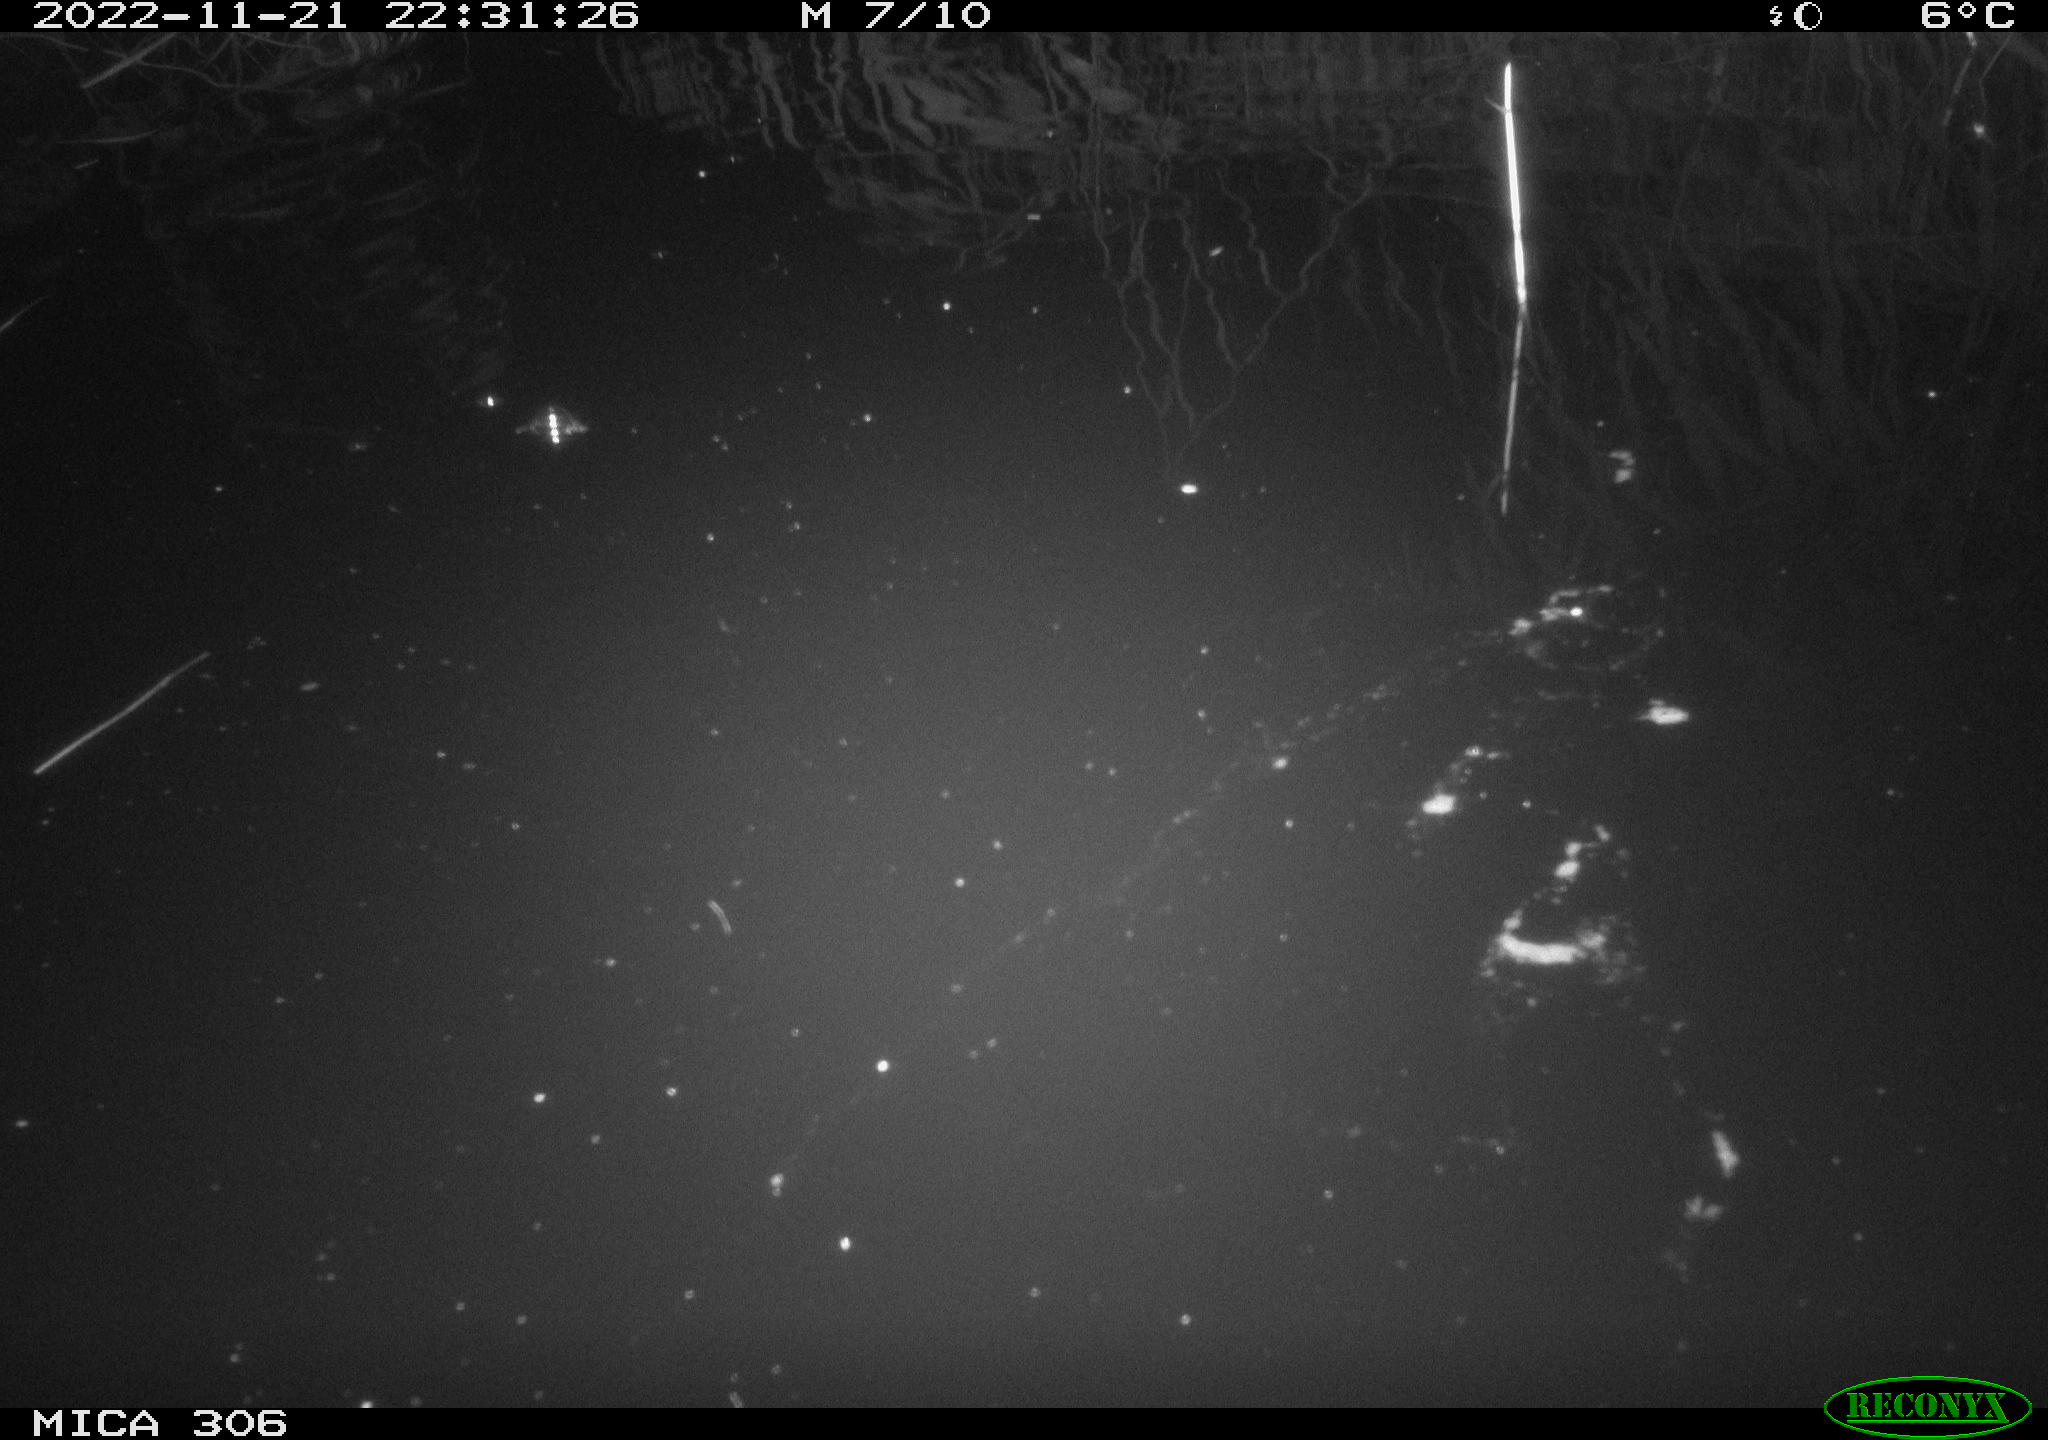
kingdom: Animalia
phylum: Chordata
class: Mammalia
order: Rodentia
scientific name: Rodentia
